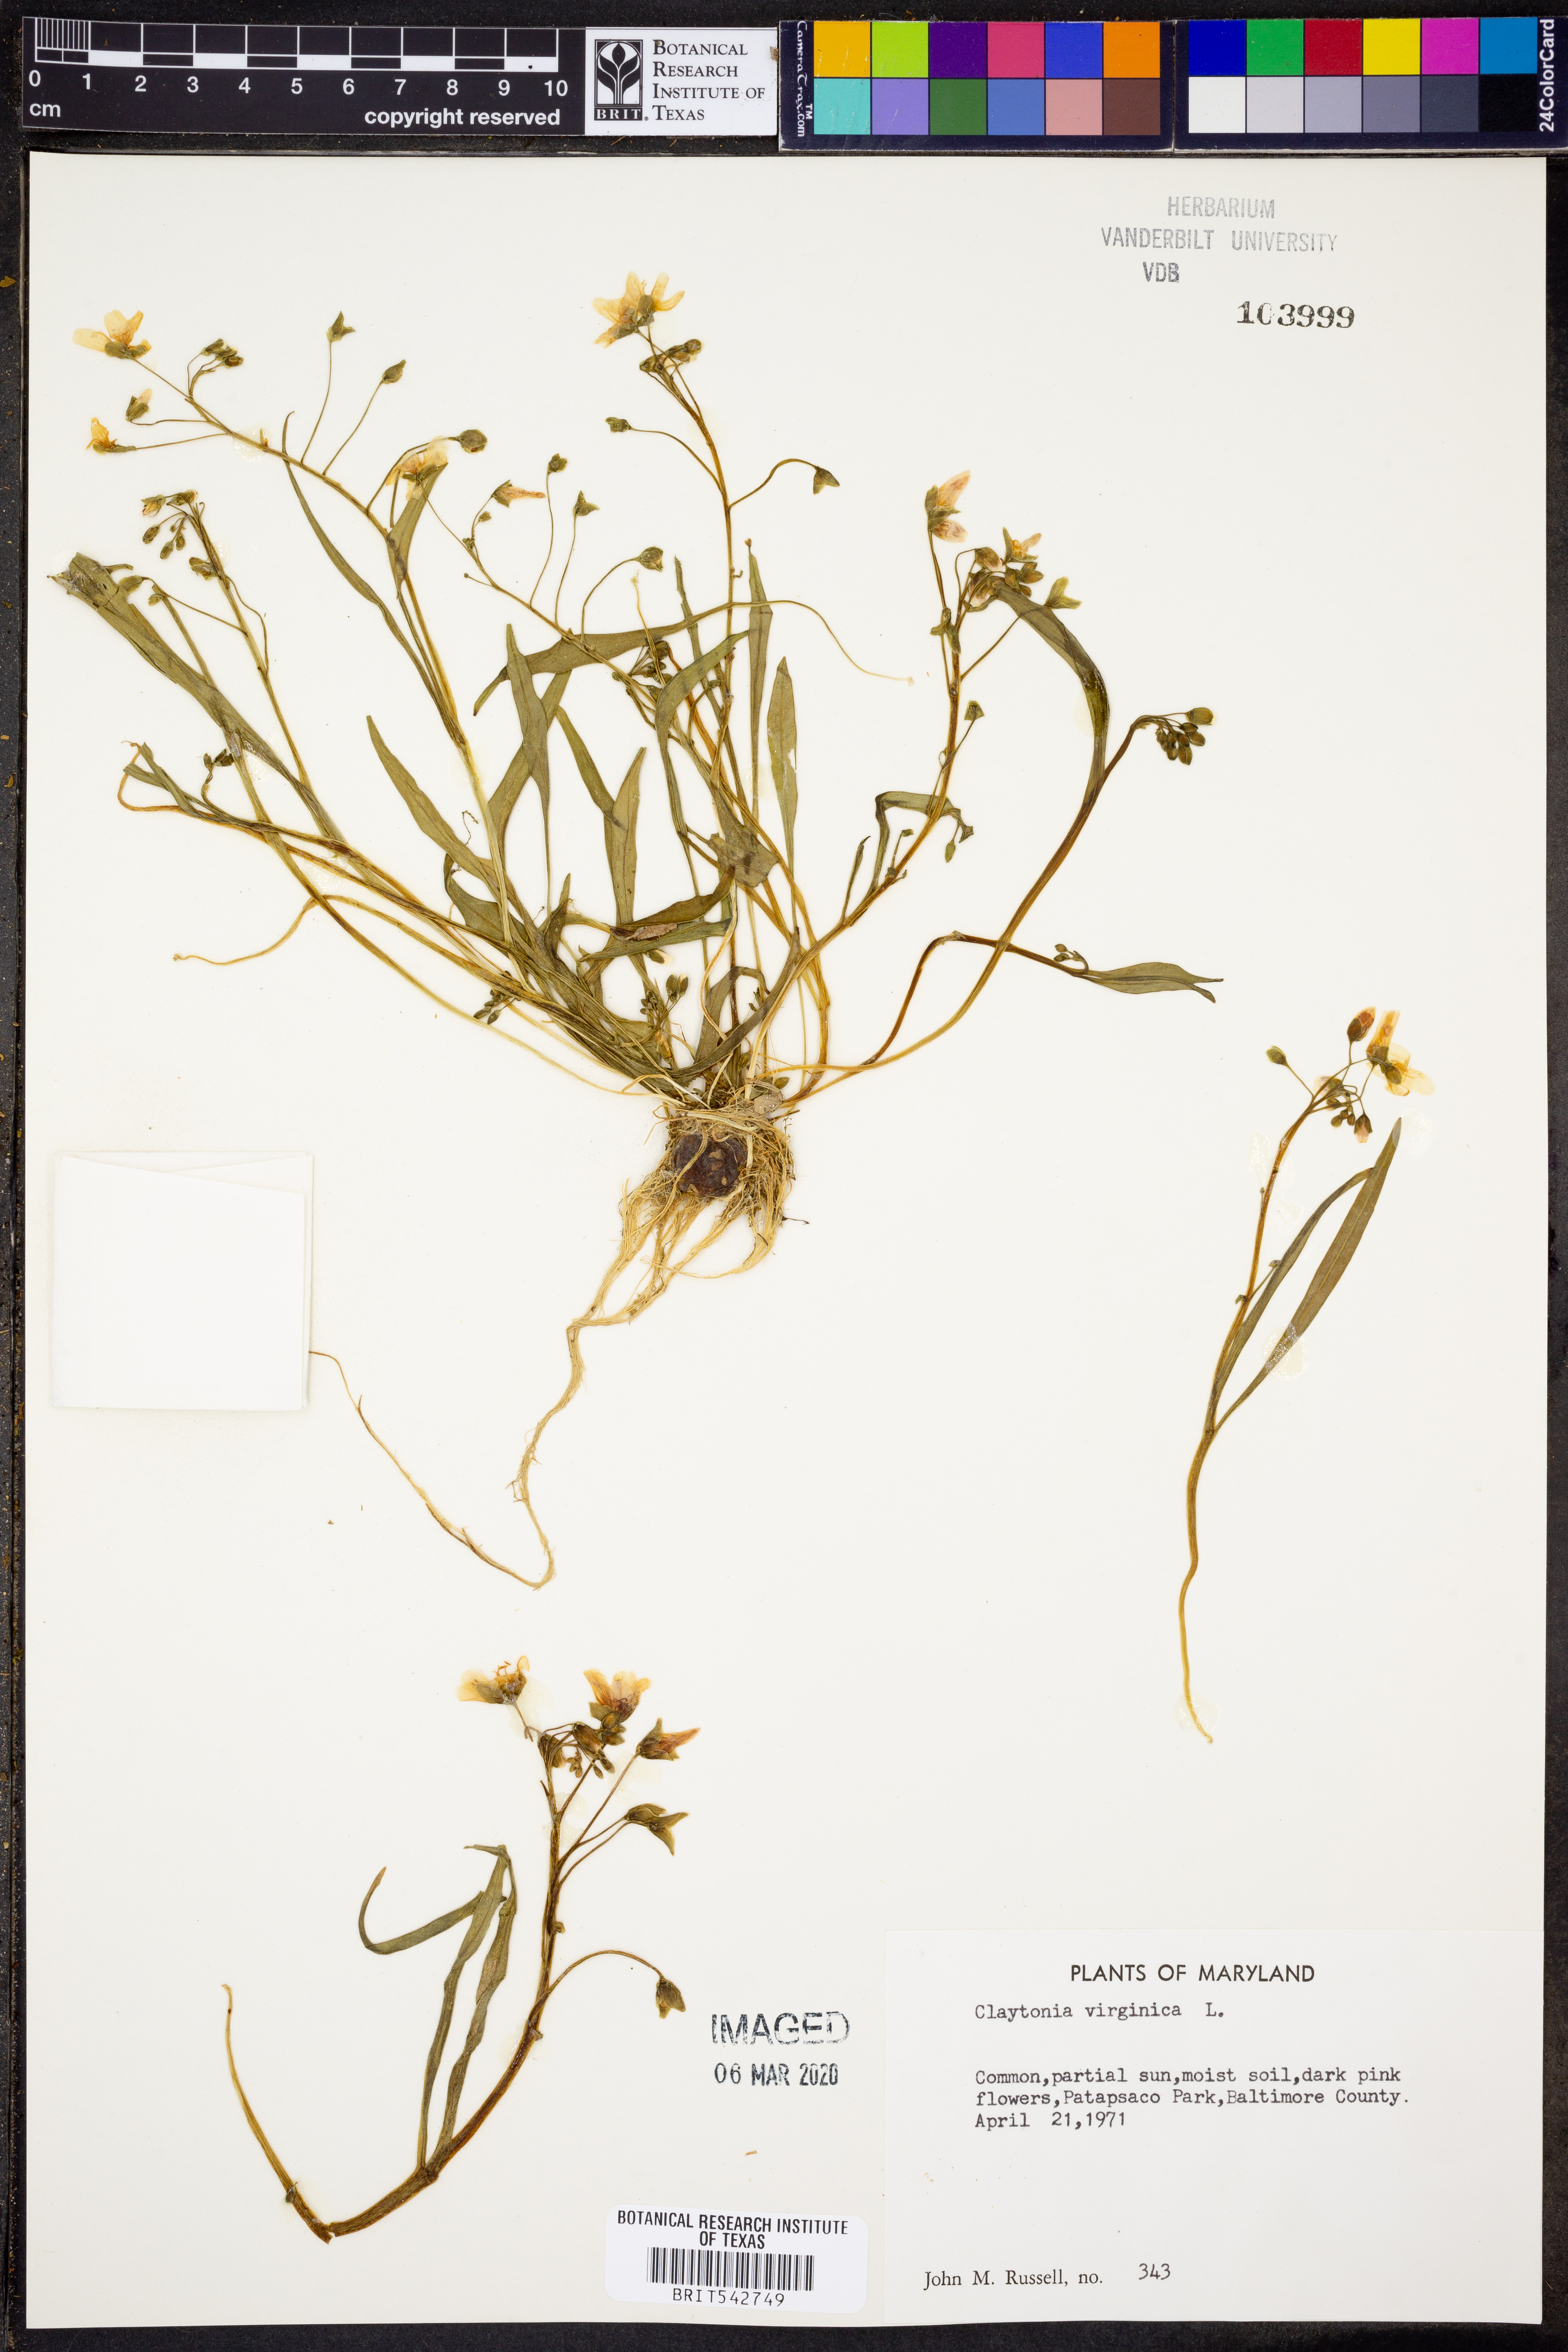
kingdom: Plantae
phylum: Tracheophyta
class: Magnoliopsida
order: Caryophyllales
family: Montiaceae
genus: Claytonia
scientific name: Claytonia virginica
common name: Virginia springbeauty
